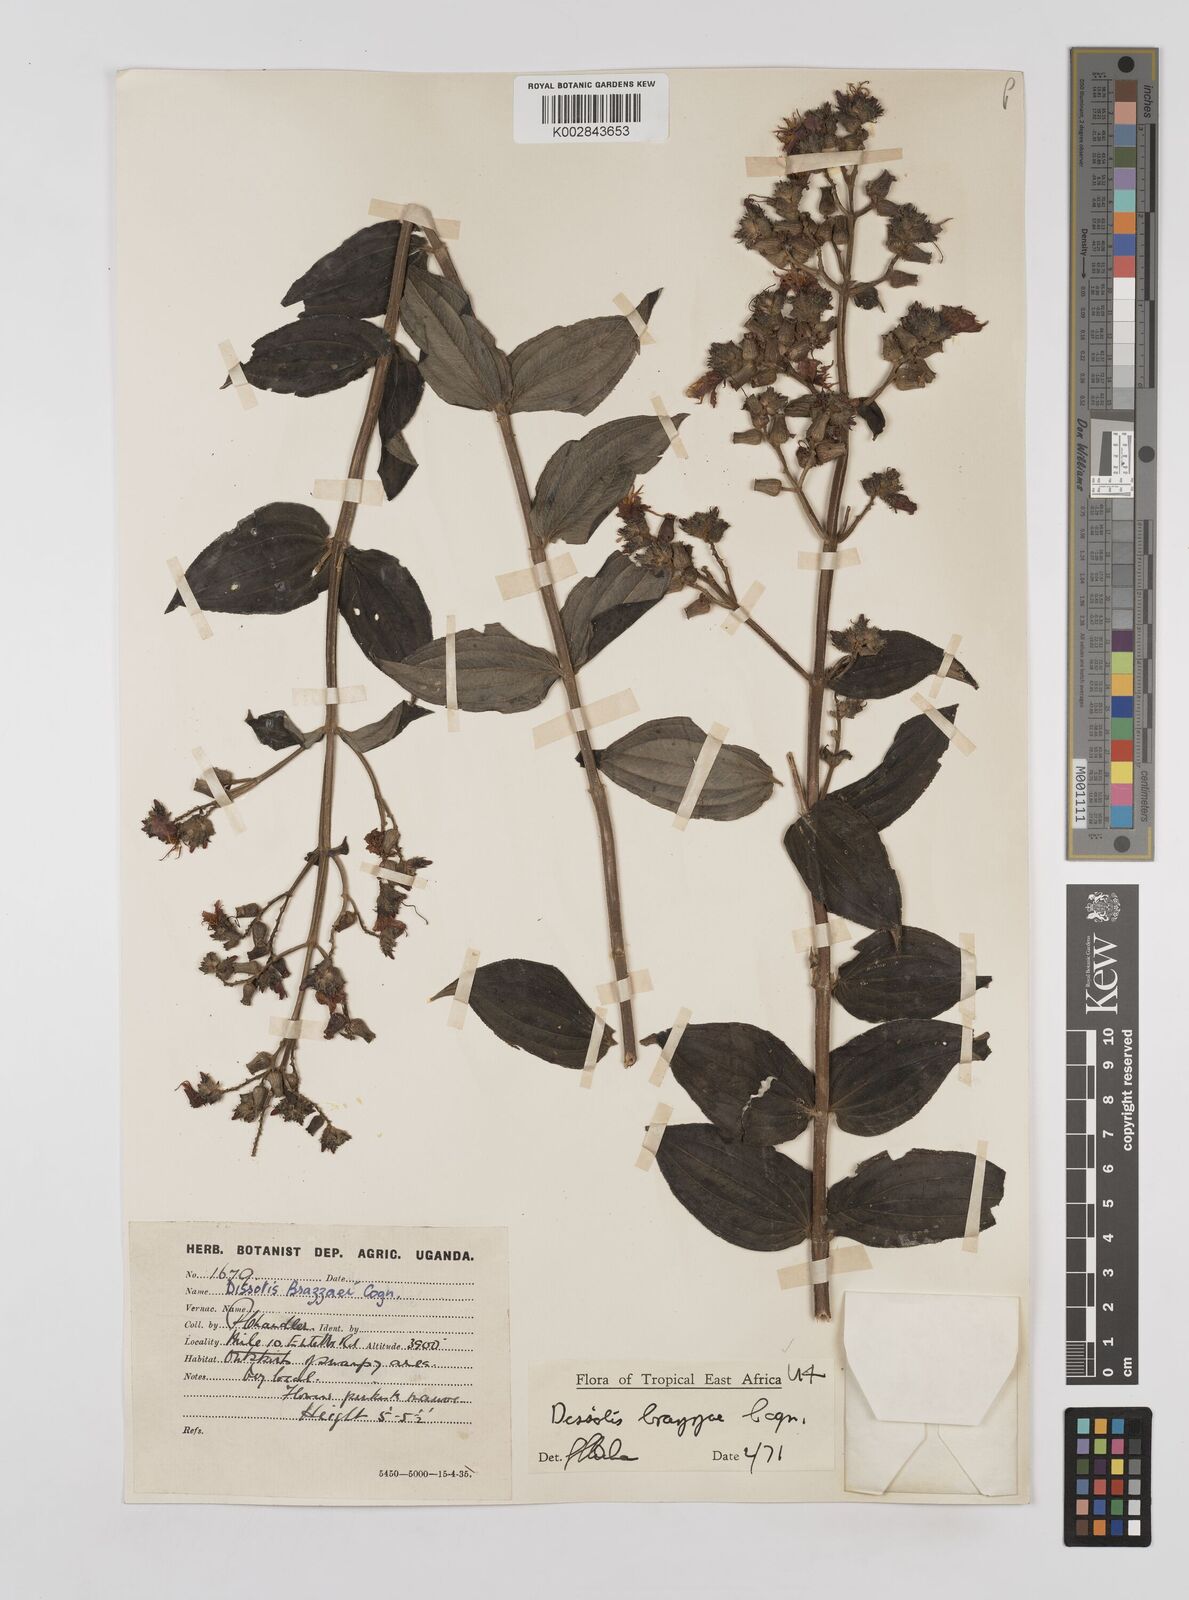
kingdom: Plantae
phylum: Tracheophyta
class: Magnoliopsida
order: Myrtales
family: Melastomataceae
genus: Dupineta
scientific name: Dupineta brazzae
